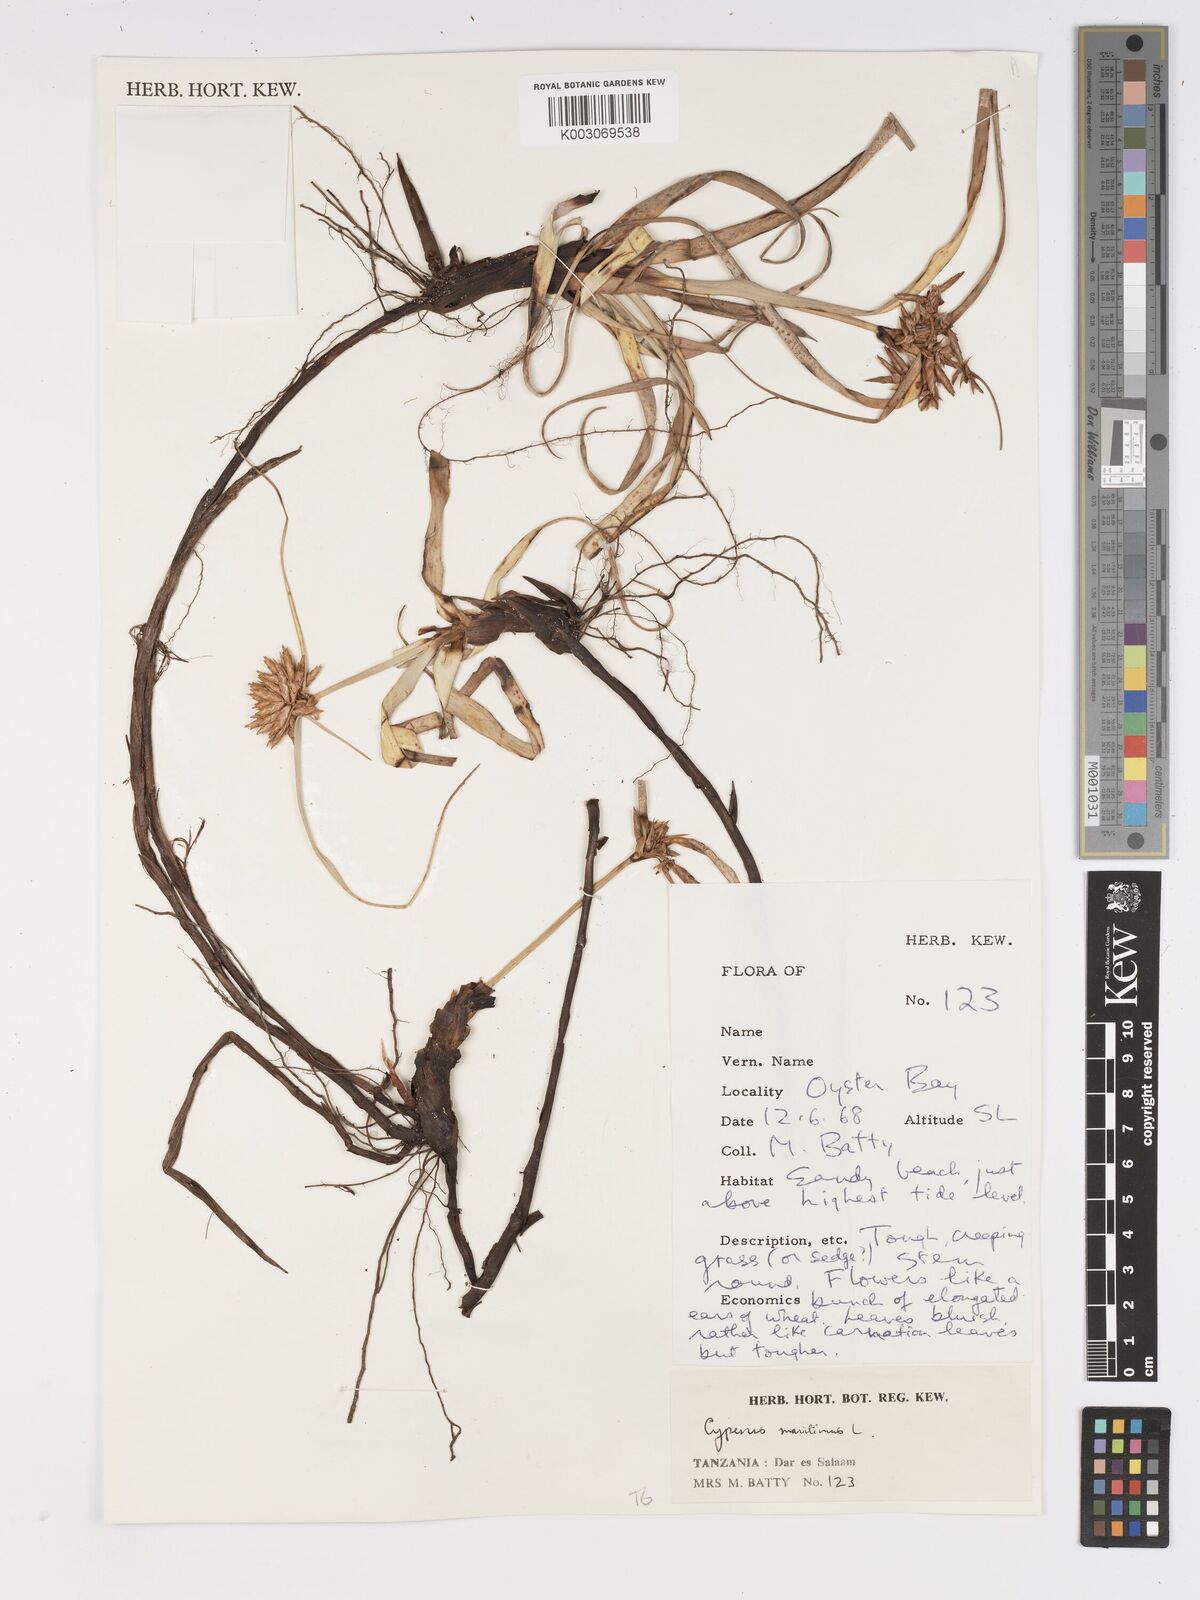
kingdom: Plantae
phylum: Tracheophyta
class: Liliopsida
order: Poales
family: Cyperaceae
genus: Cyperus
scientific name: Cyperus crassipes
